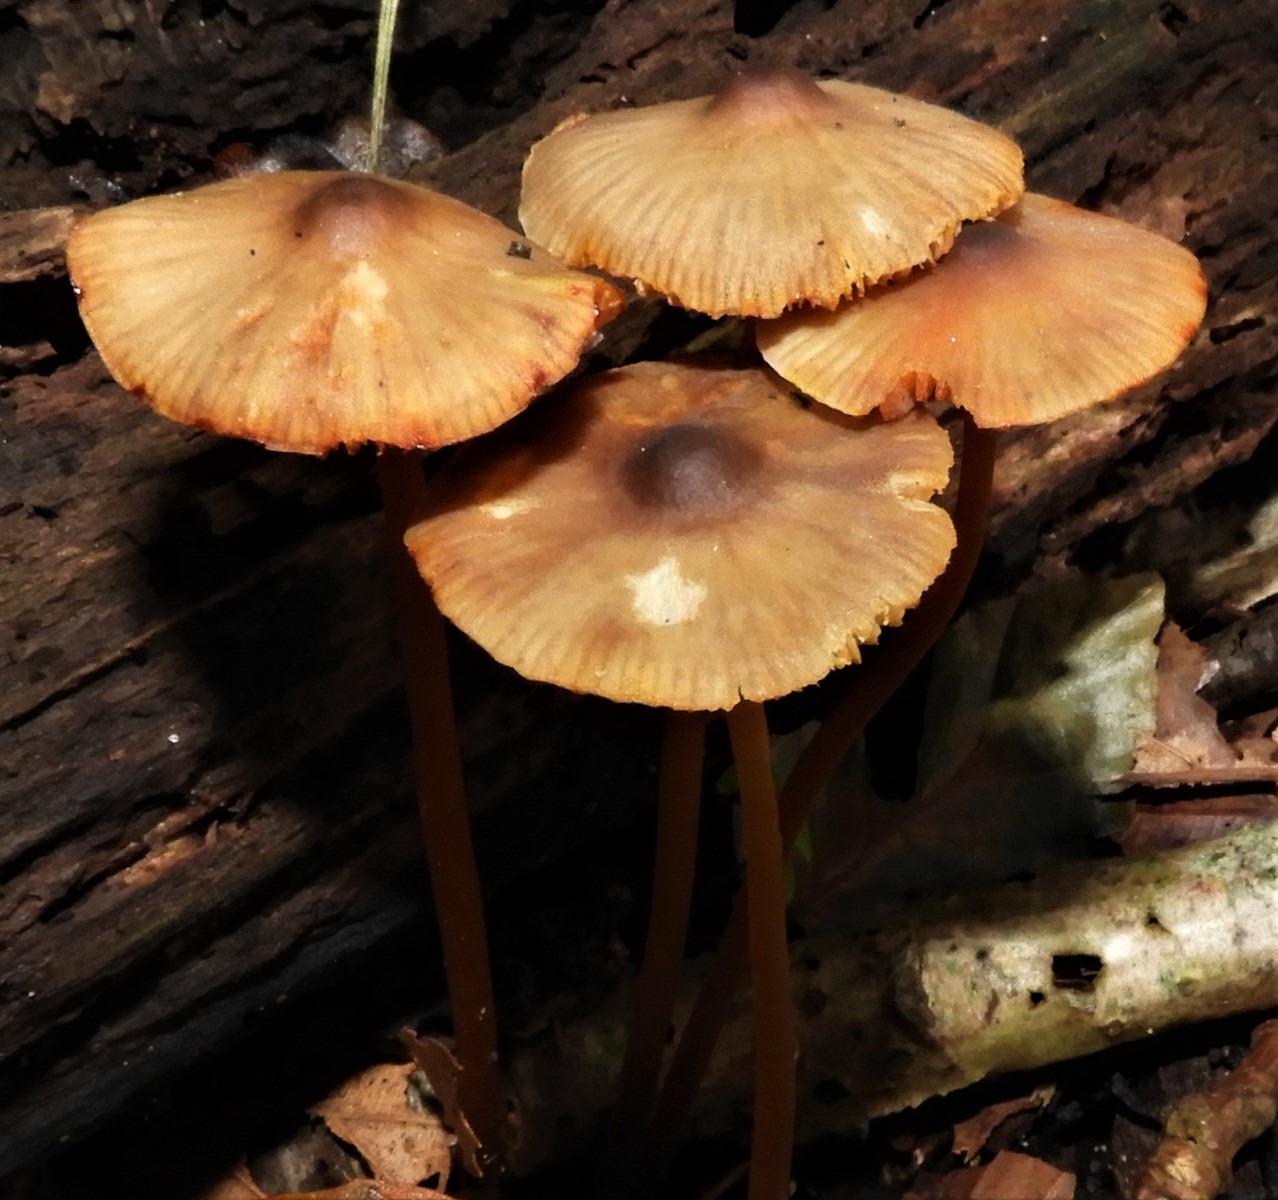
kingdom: Fungi
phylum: Basidiomycota
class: Agaricomycetes
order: Agaricales
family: Mycenaceae
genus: Mycena
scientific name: Mycena crocata
